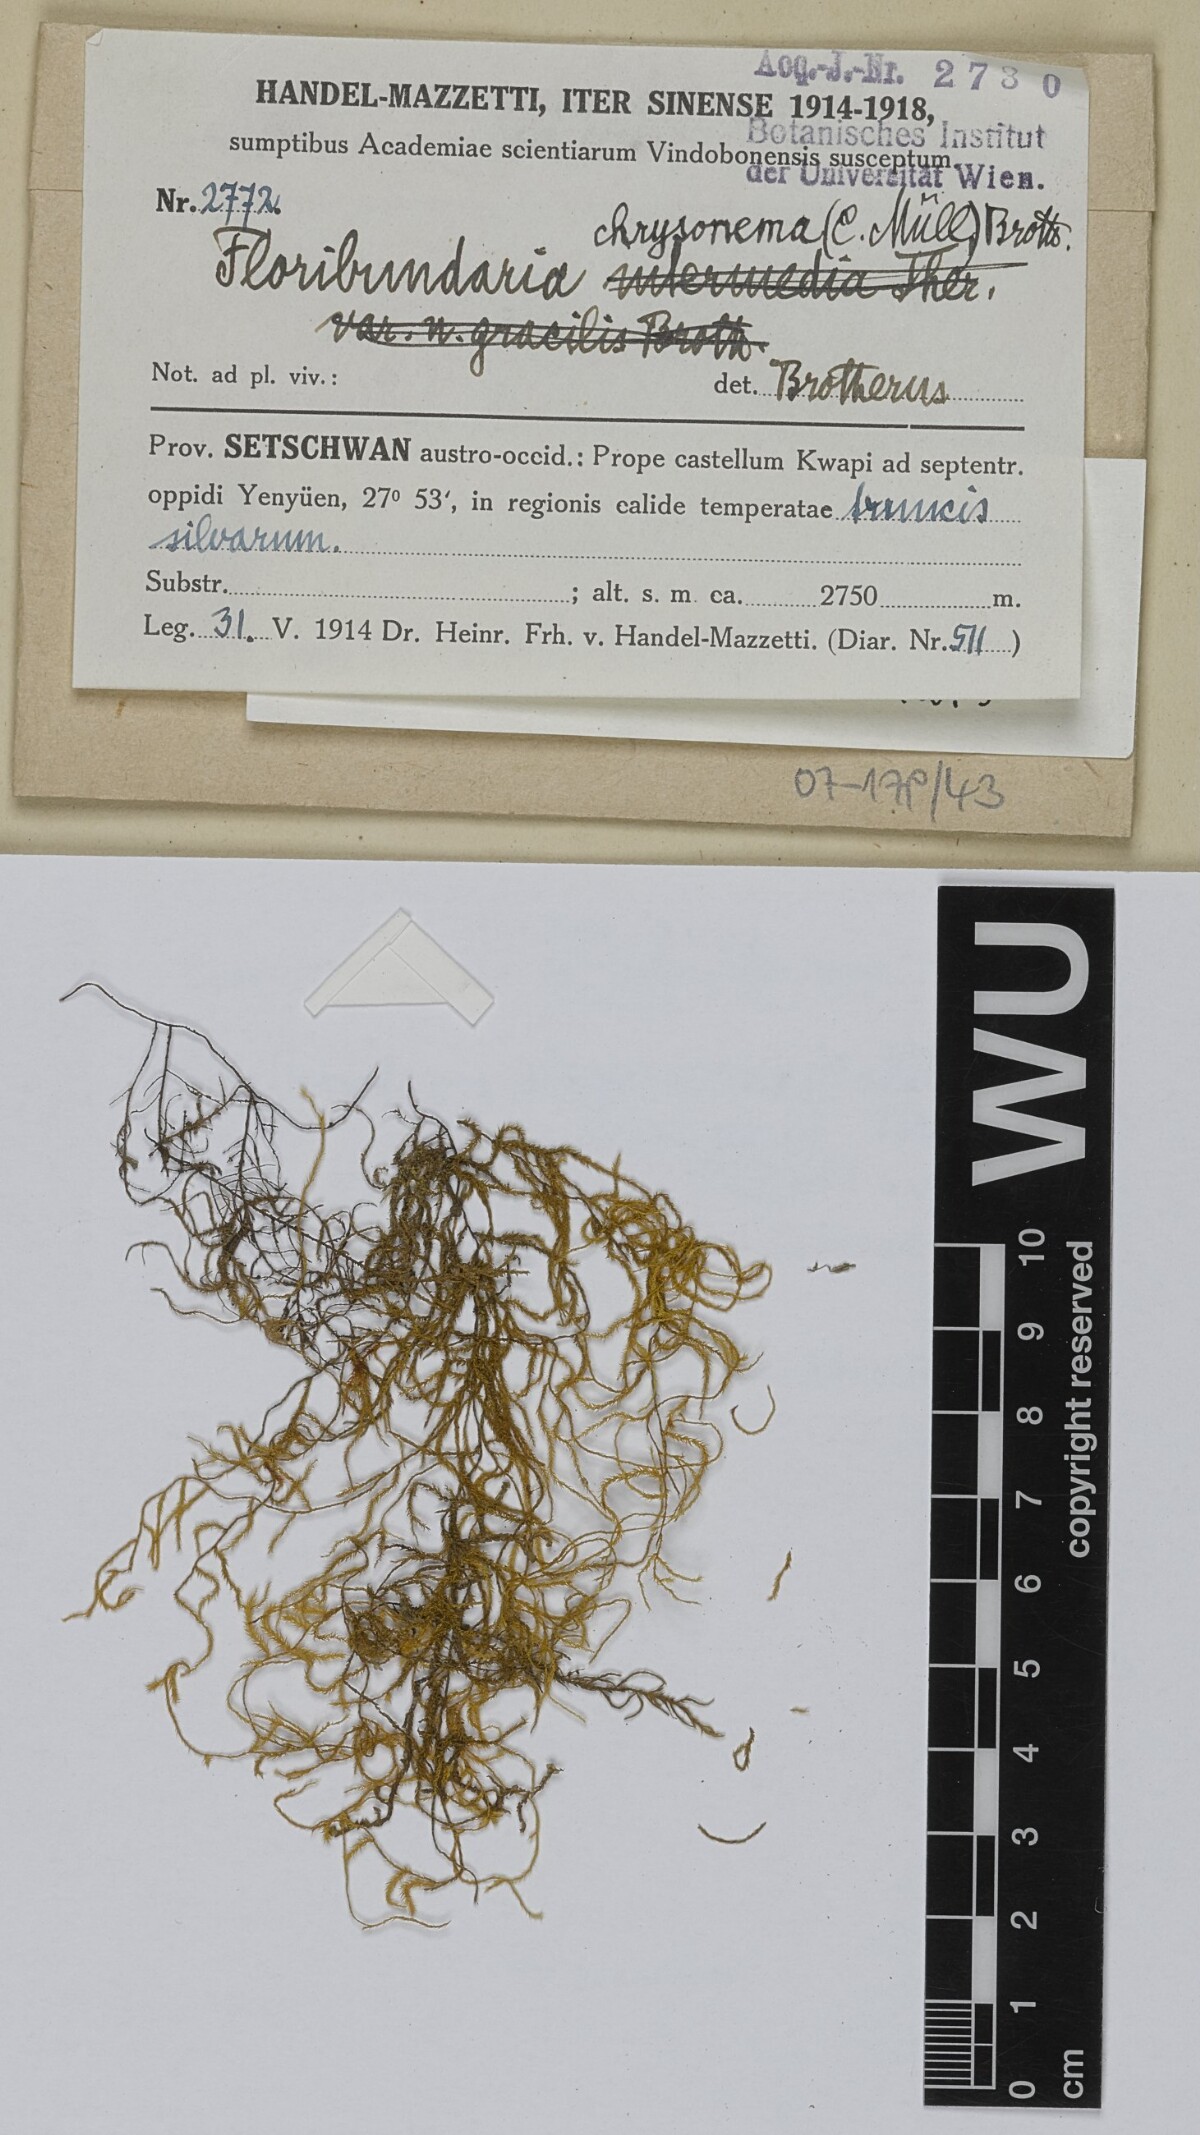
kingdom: Plantae
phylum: Bryophyta
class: Bryopsida
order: Hypnales
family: Meteoriaceae
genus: Trachycladiella
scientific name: Trachycladiella aurea
